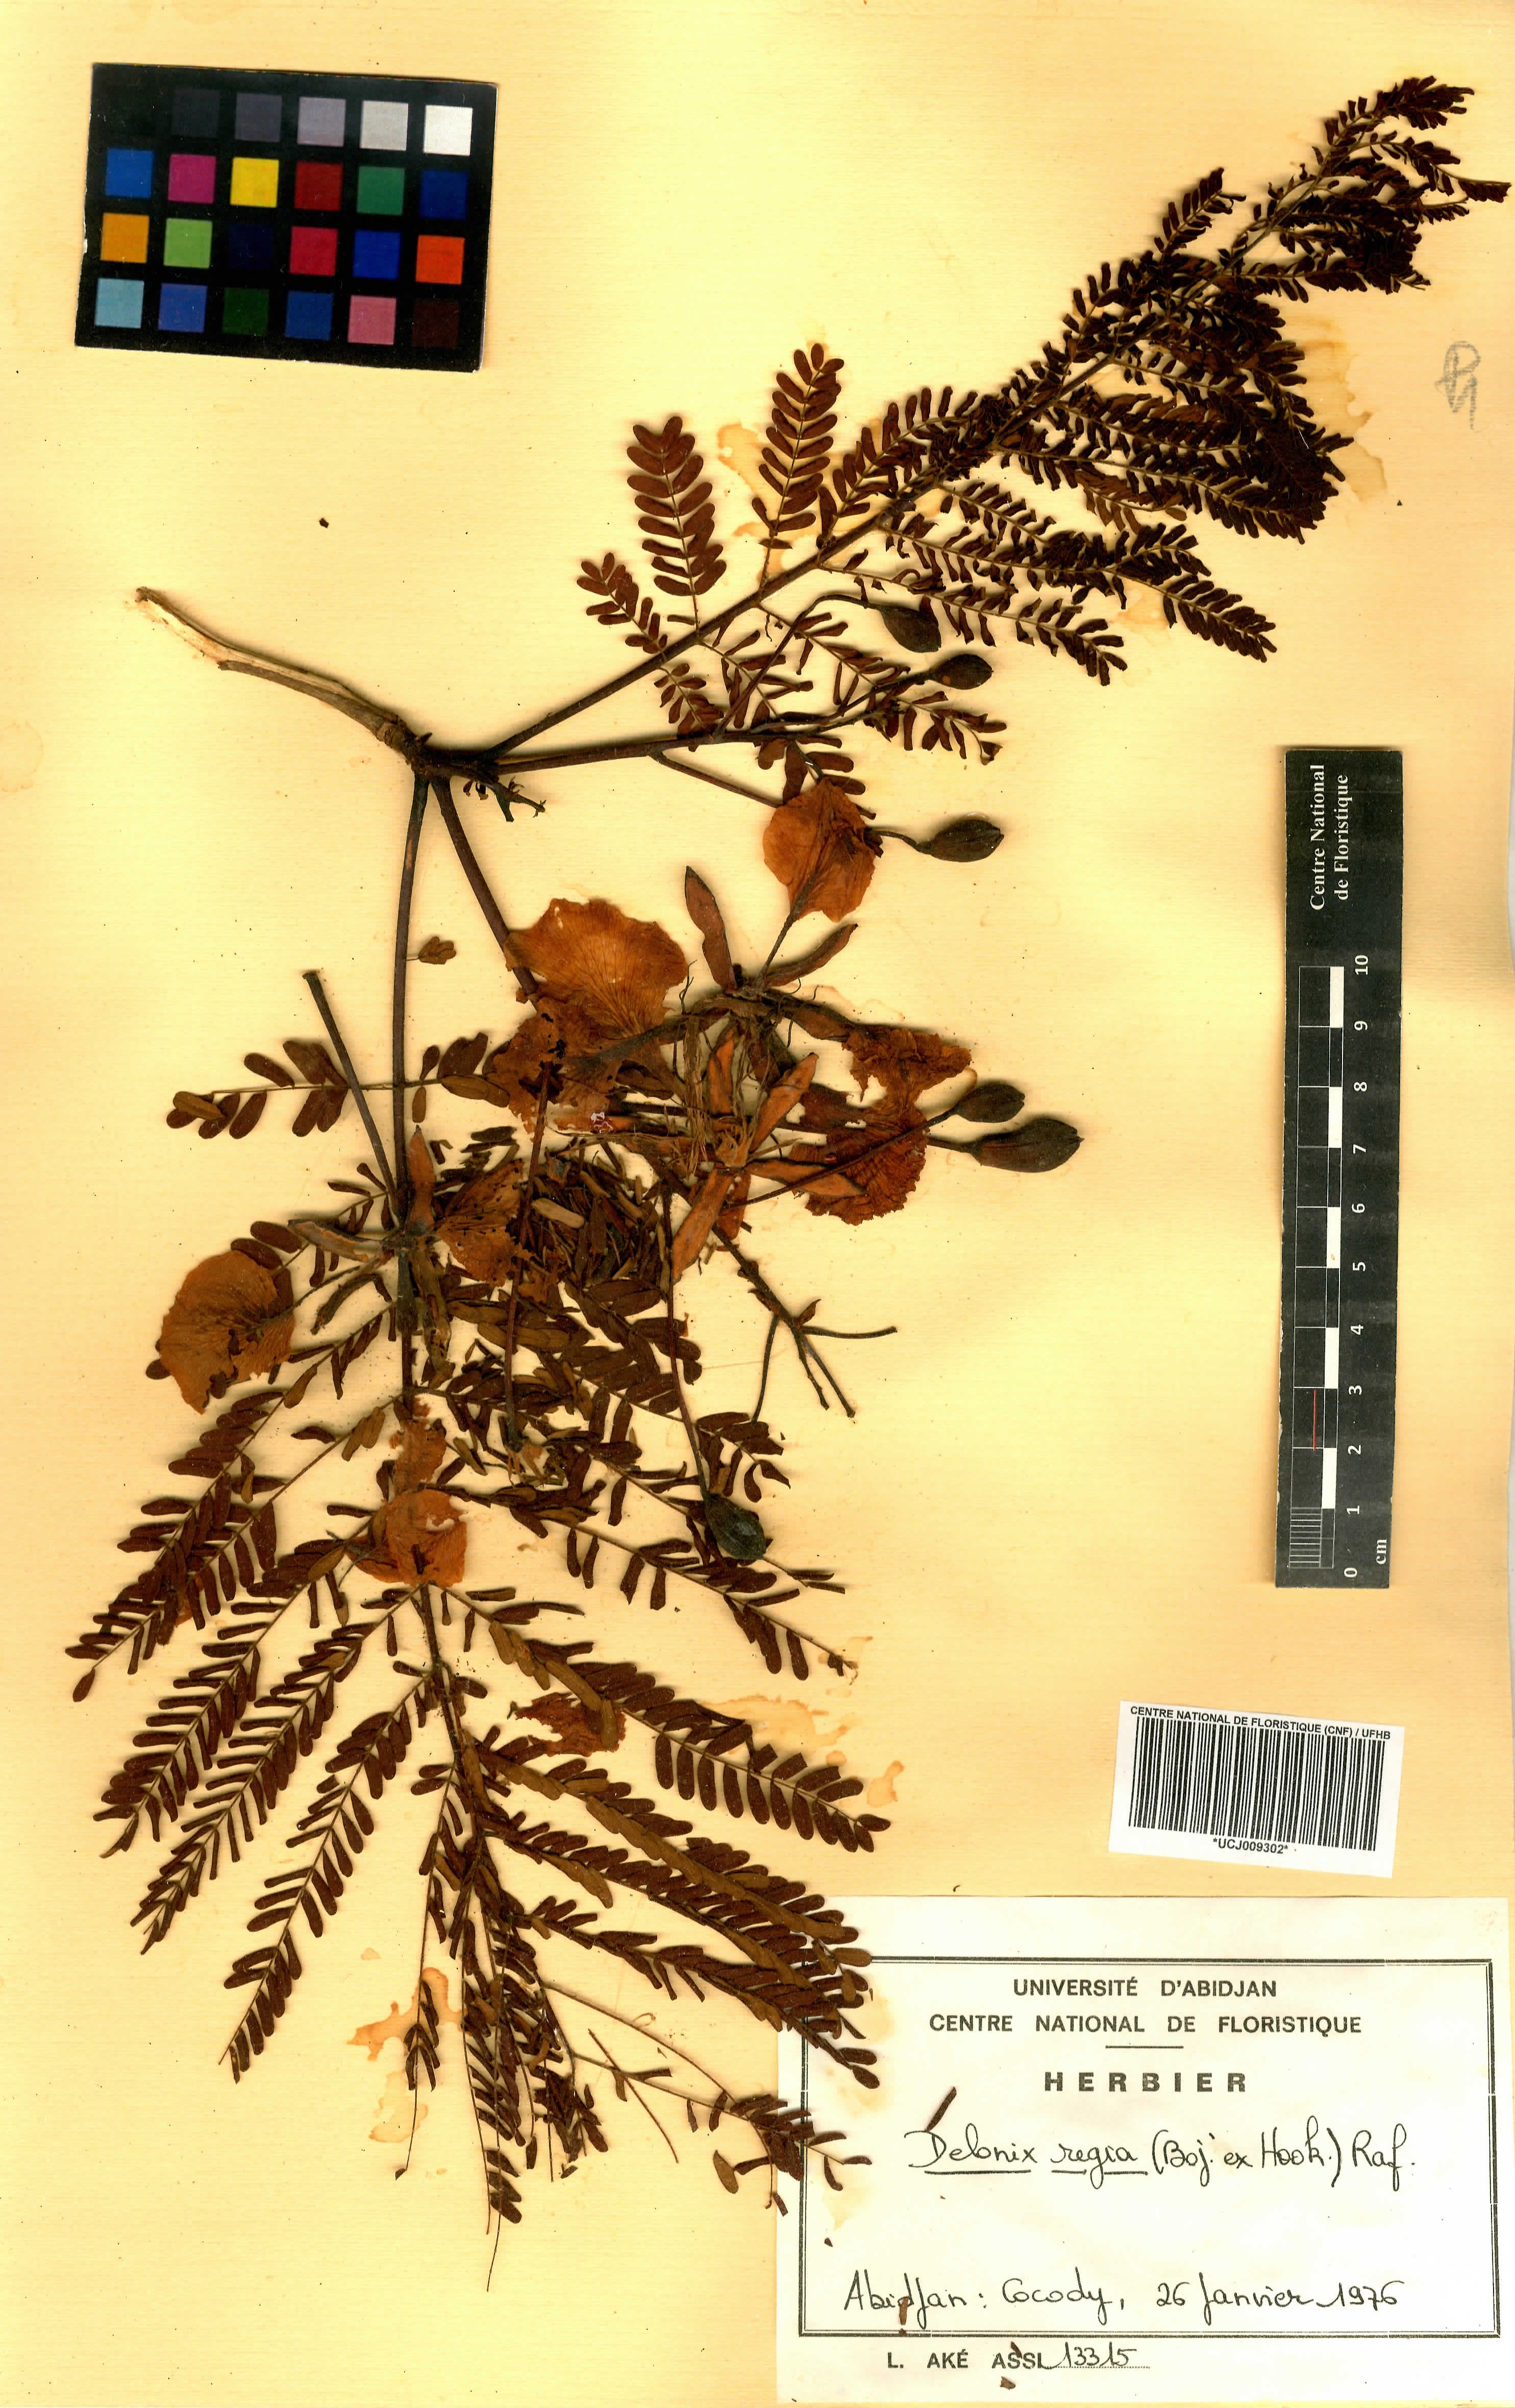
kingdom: Plantae
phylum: Tracheophyta
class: Magnoliopsida
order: Fabales
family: Fabaceae
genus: Delonix
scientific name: Delonix regia
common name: Royal poinciana
